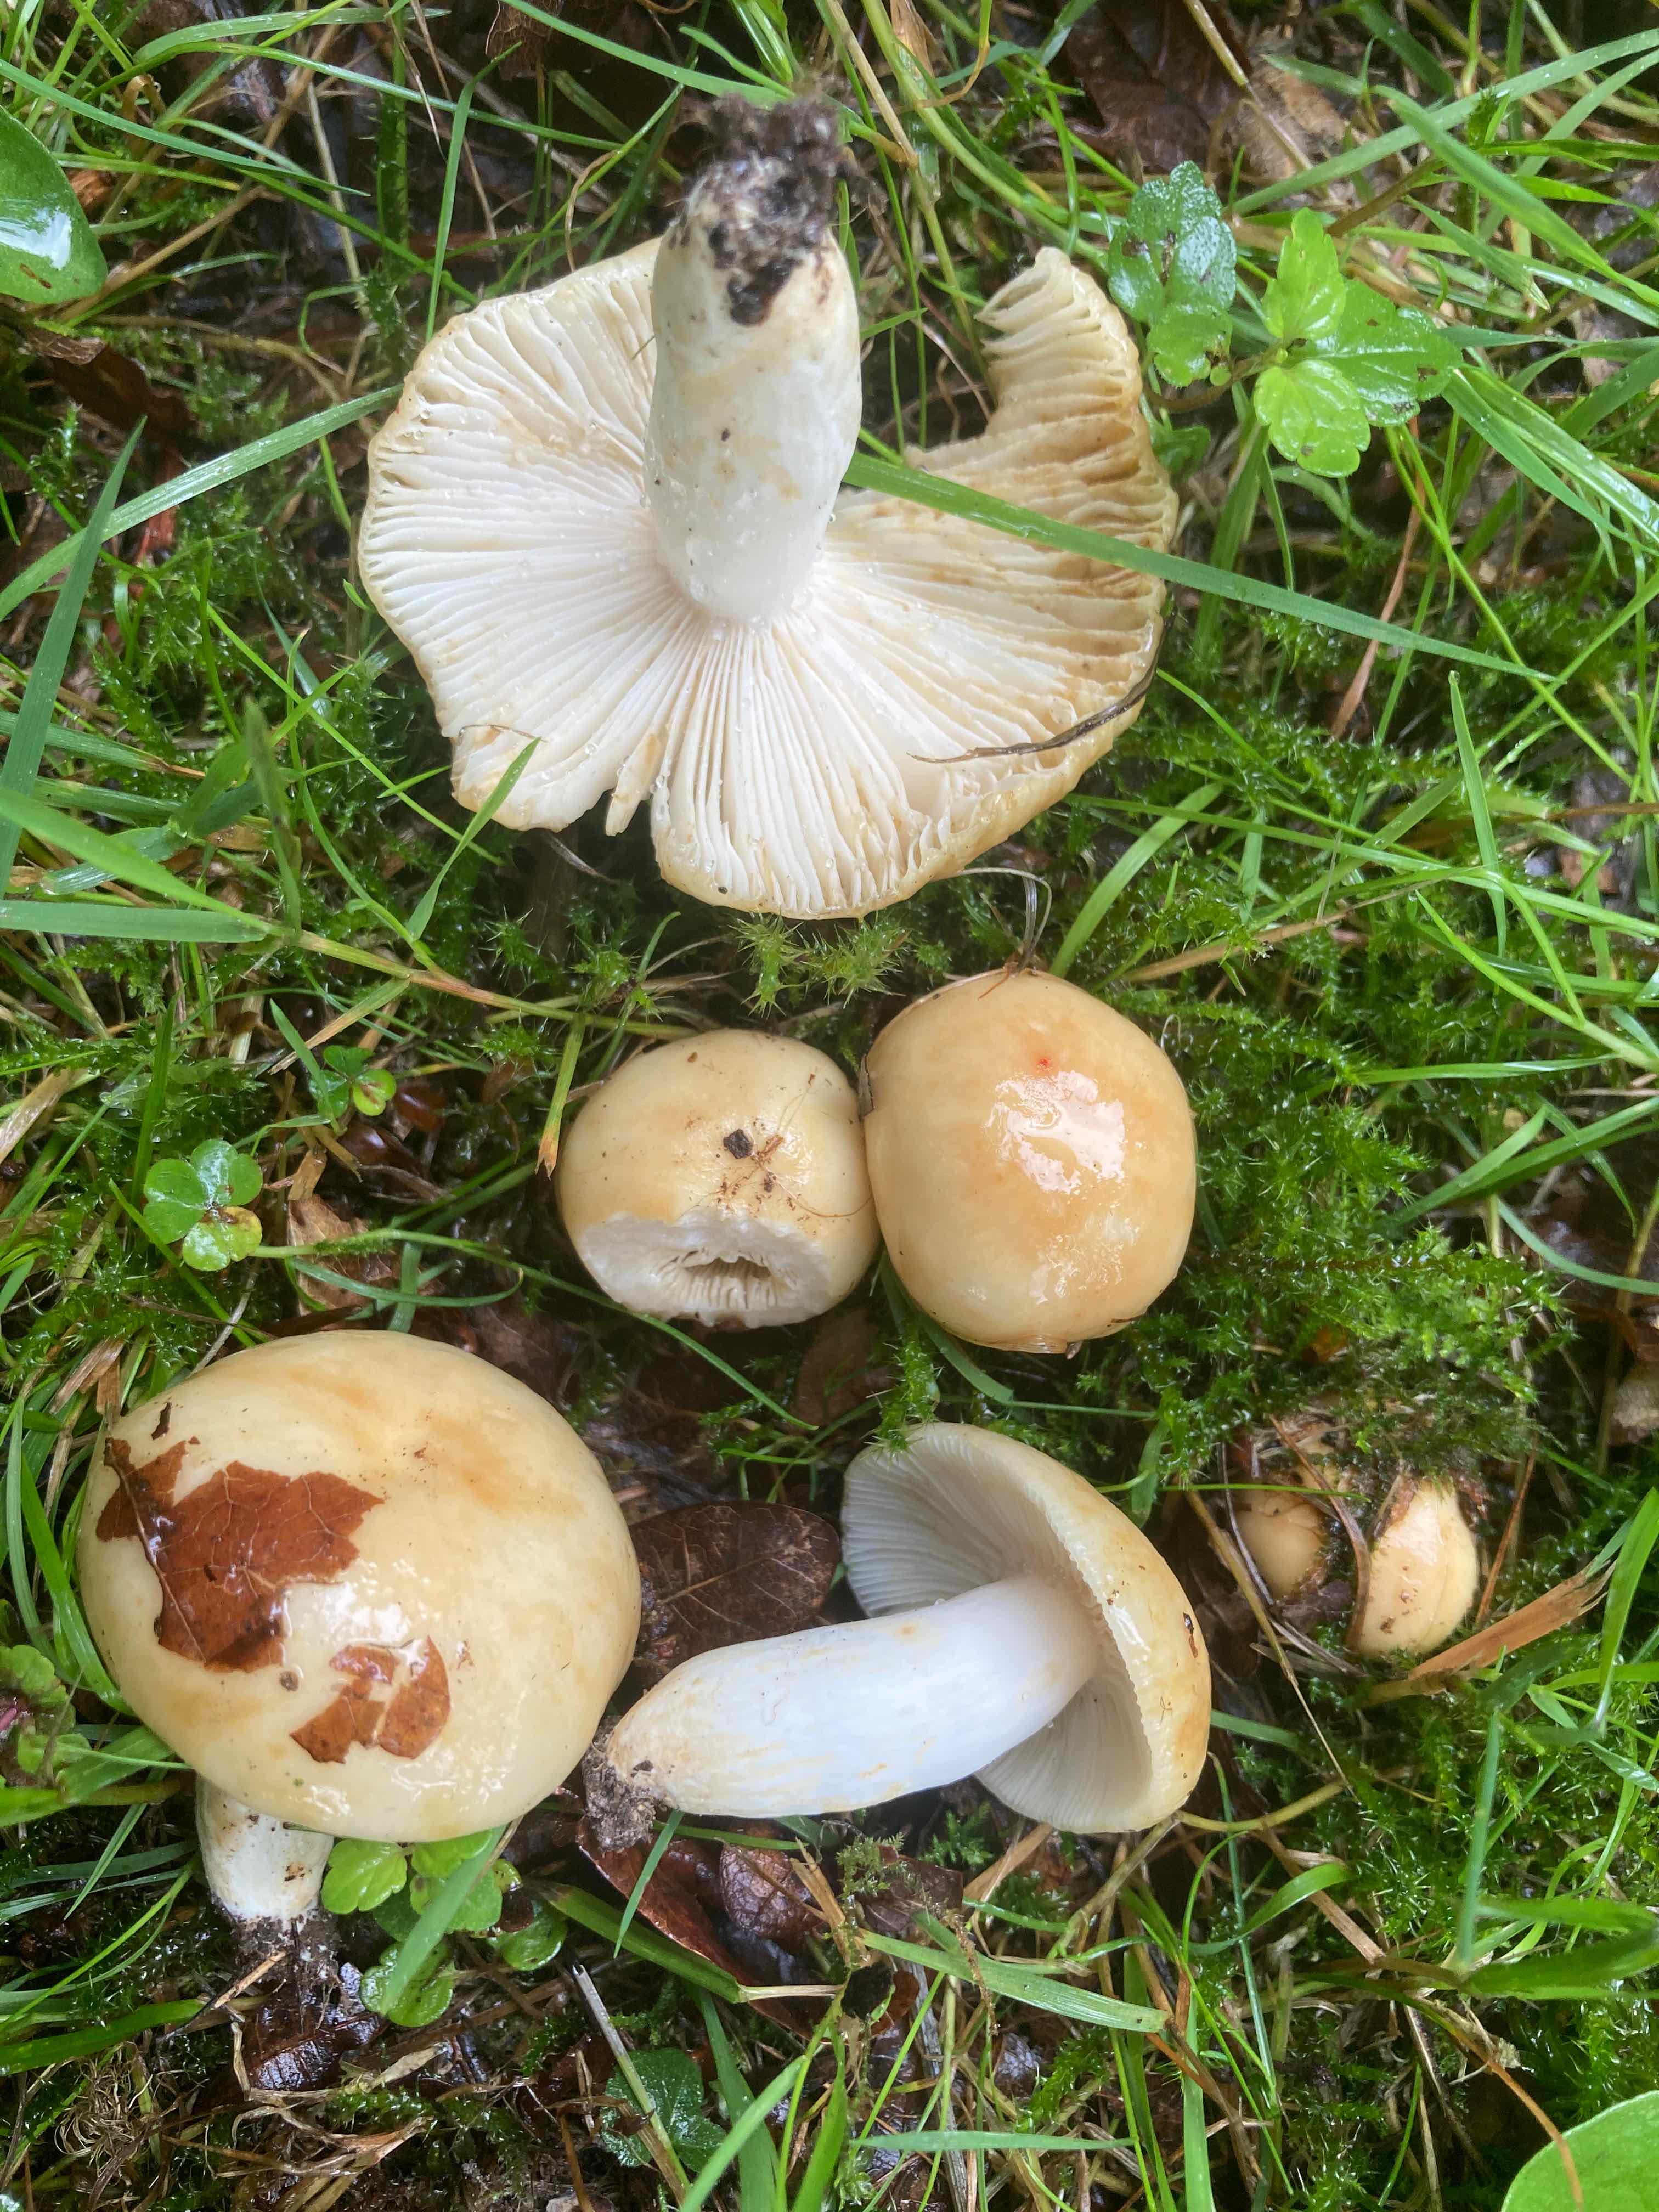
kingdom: Fungi
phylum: Basidiomycota
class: Agaricomycetes
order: Russulales
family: Russulaceae
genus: Russula
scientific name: Russula farinipes
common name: gul kam-skørhat
